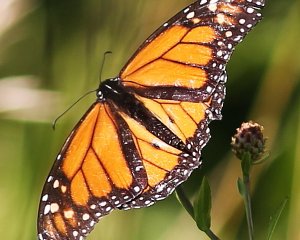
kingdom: Animalia
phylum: Arthropoda
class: Insecta
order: Lepidoptera
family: Nymphalidae
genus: Danaus
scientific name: Danaus plexippus
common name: Monarch
